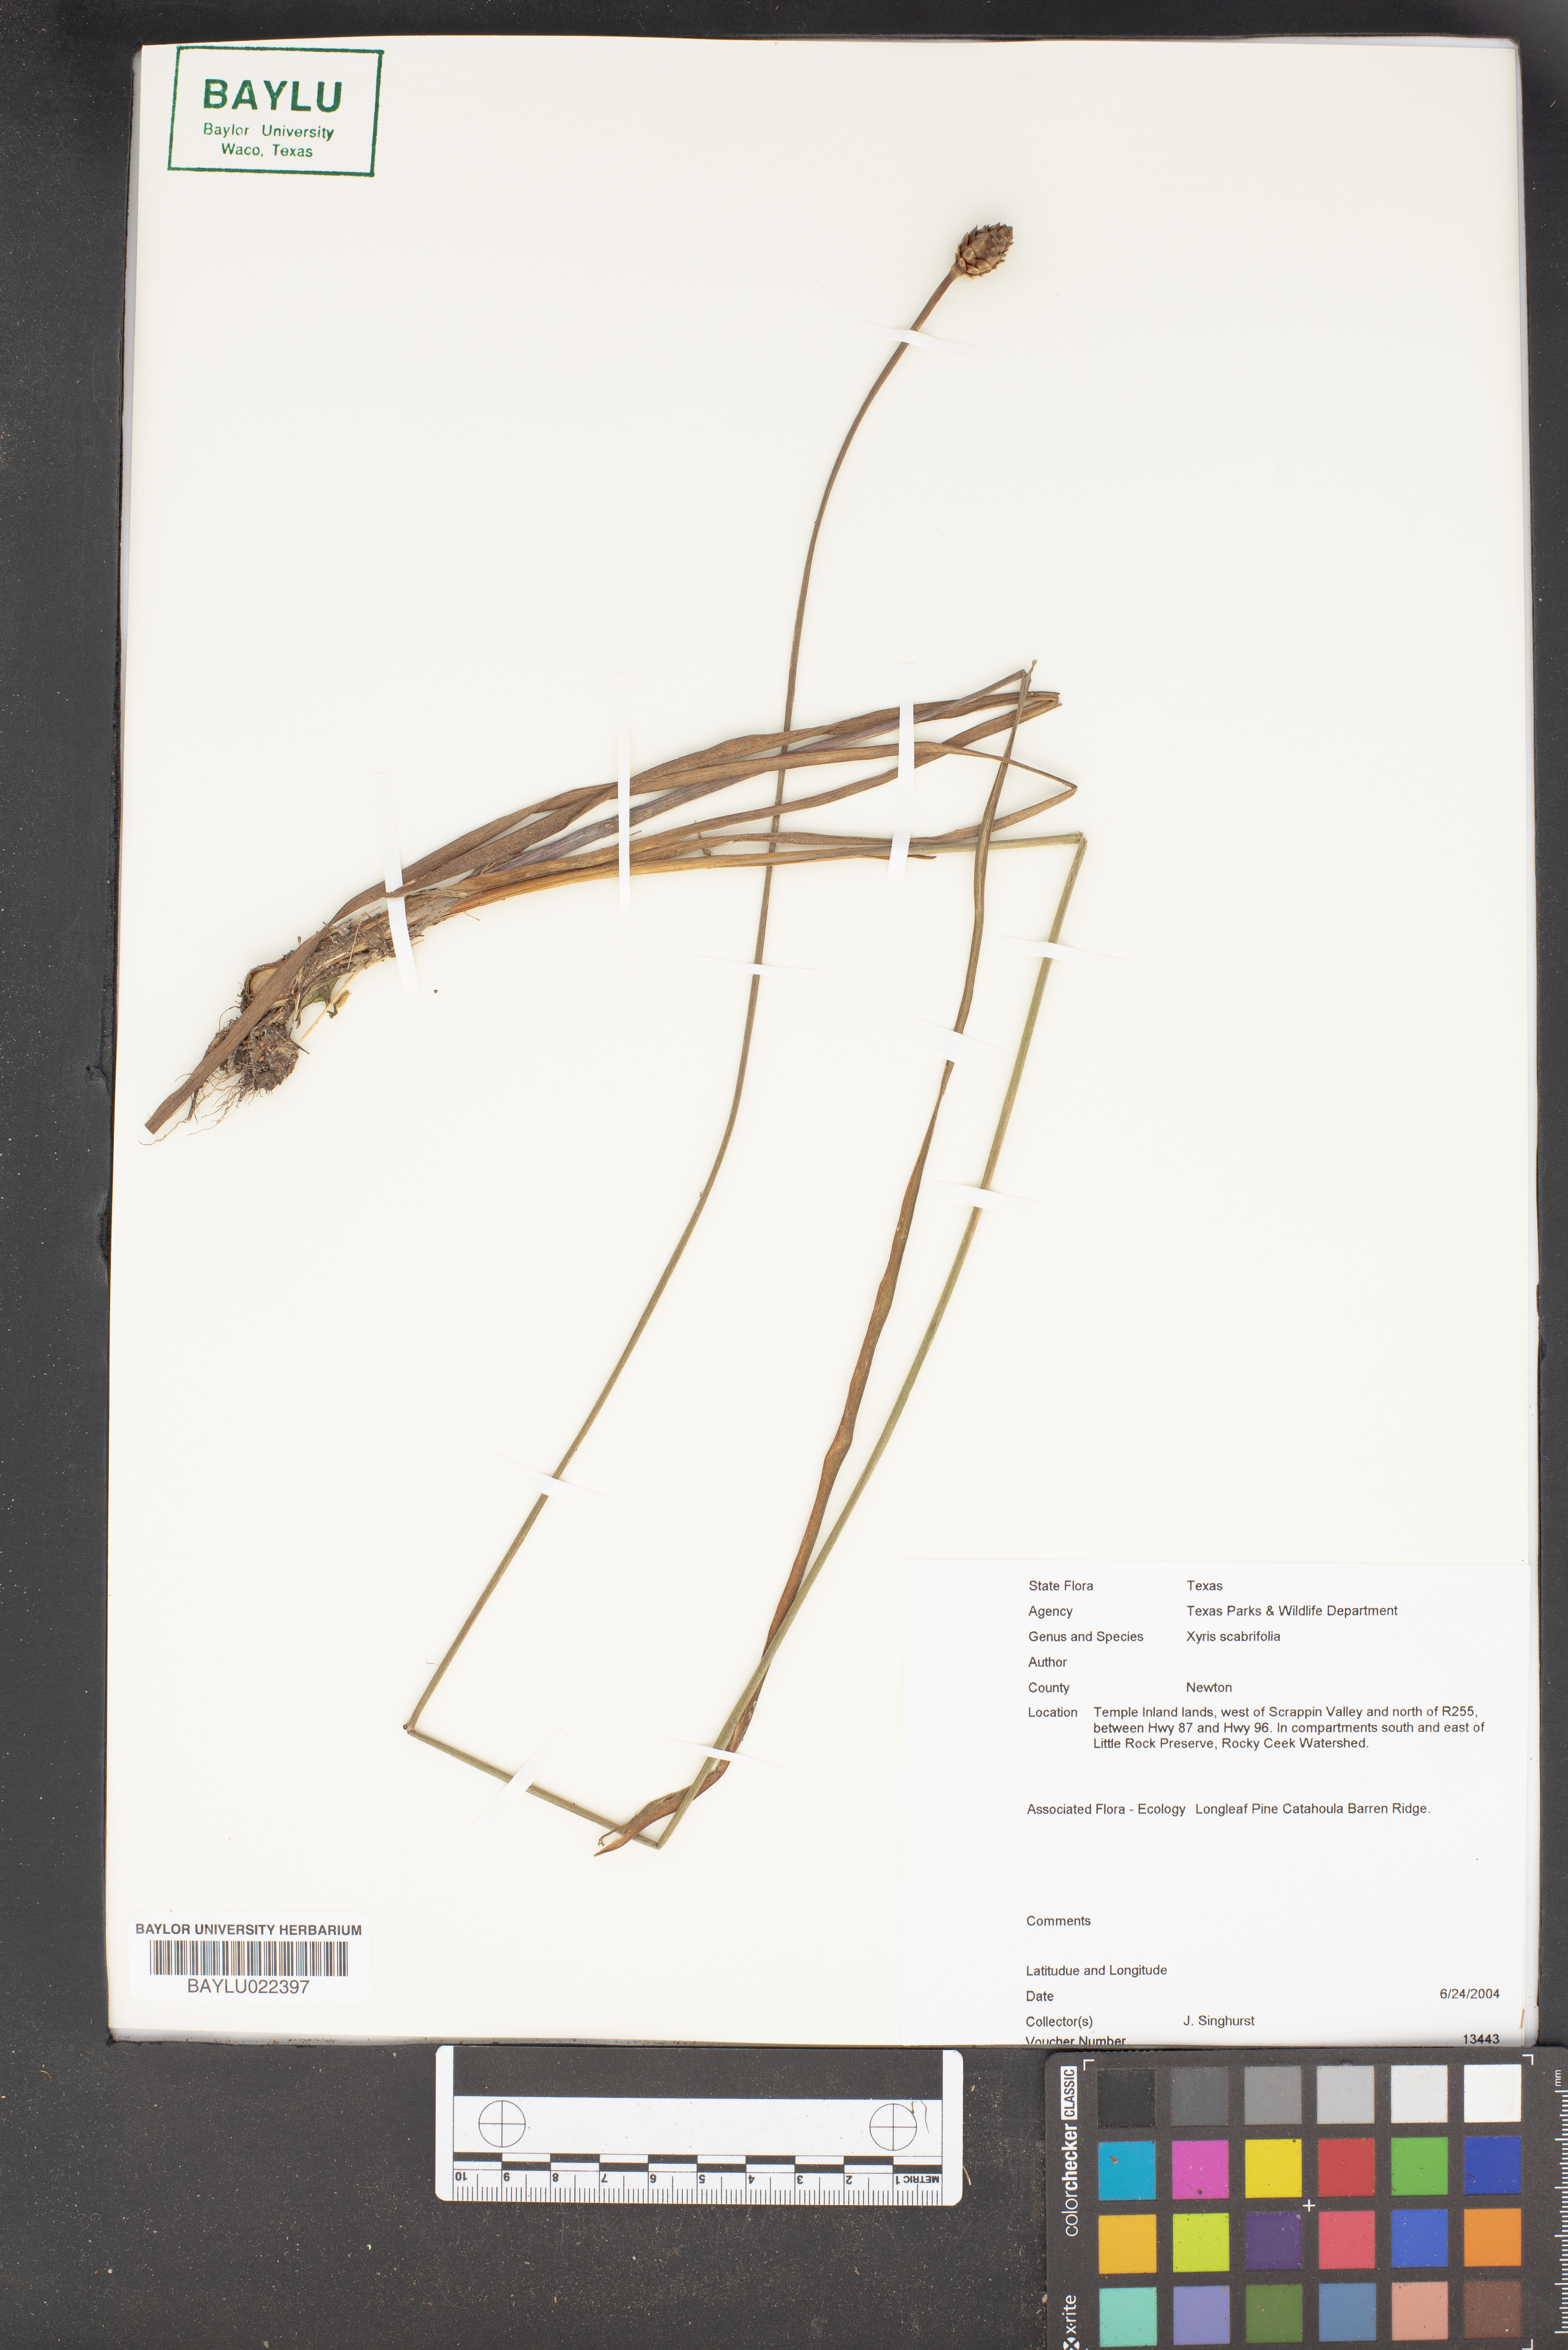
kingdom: Plantae
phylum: Tracheophyta
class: Liliopsida
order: Poales
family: Xyridaceae
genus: Xyris
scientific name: Xyris scabrifolia
